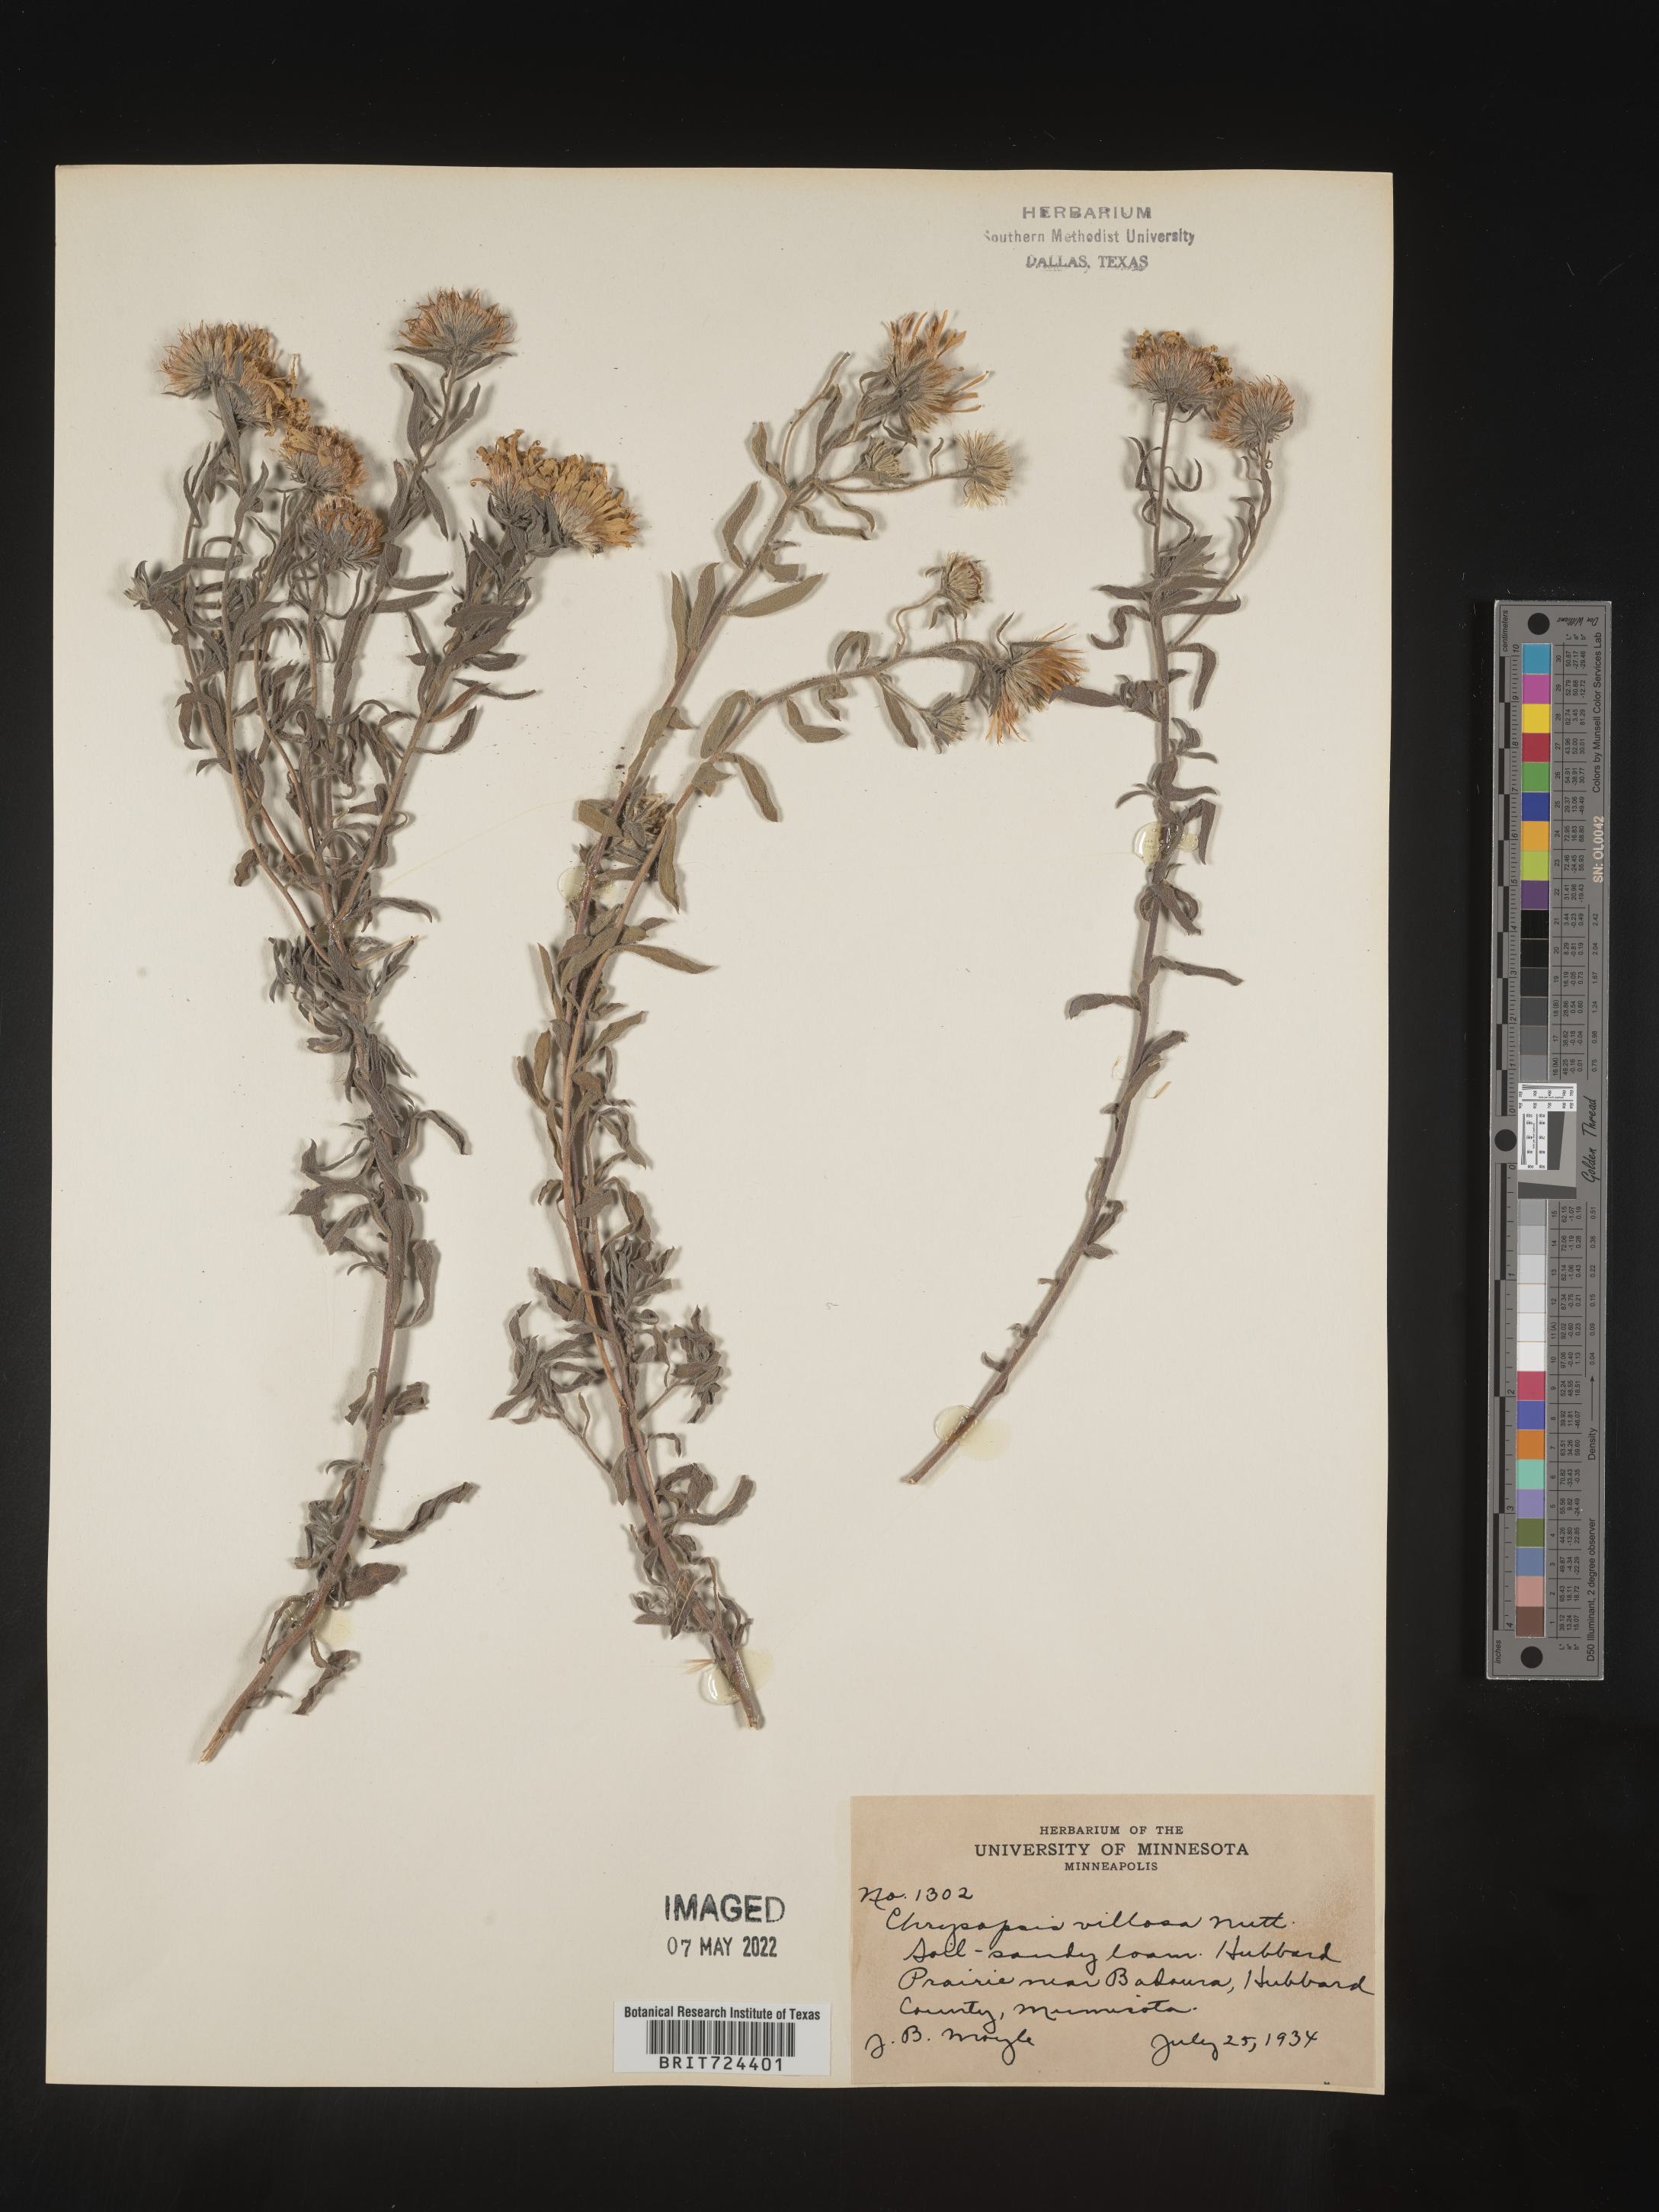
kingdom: Plantae
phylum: Tracheophyta
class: Magnoliopsida
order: Asterales
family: Asteraceae
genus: Heterotheca
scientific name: Heterotheca wisconsinensis
